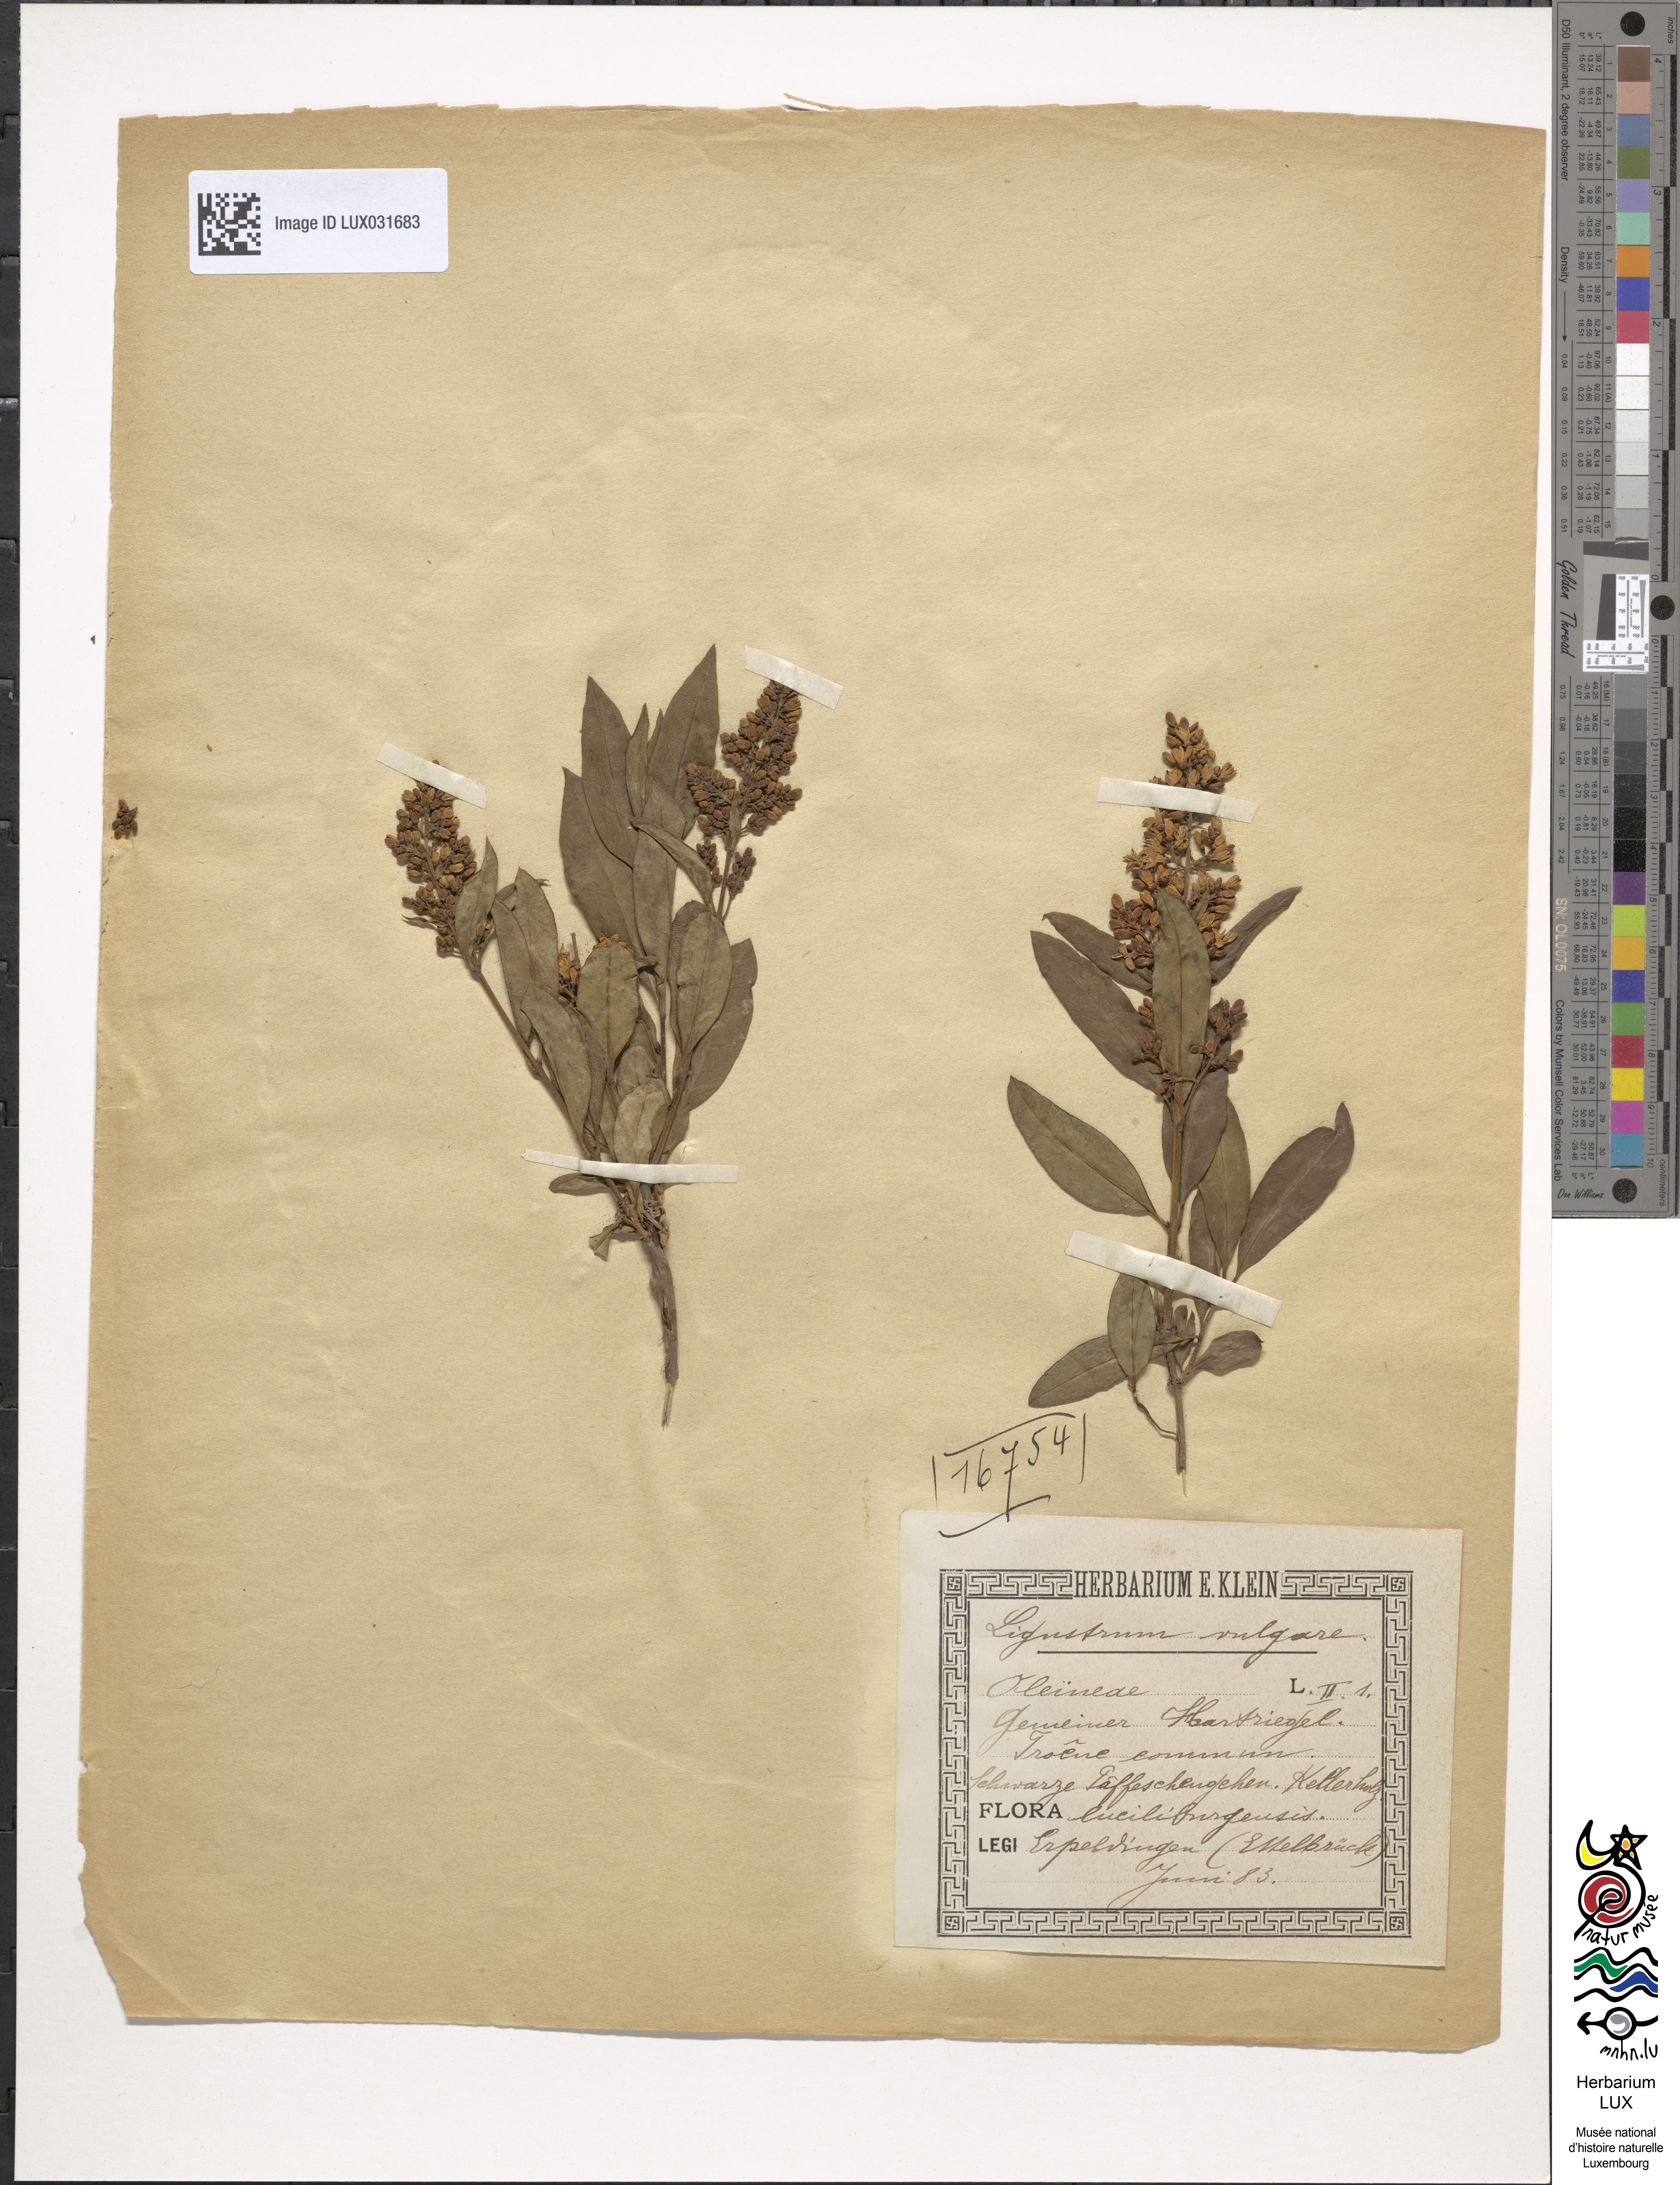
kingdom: Plantae
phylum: Tracheophyta
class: Magnoliopsida
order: Lamiales
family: Oleaceae
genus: Ligustrum
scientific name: Ligustrum vulgare
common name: Wild privet
